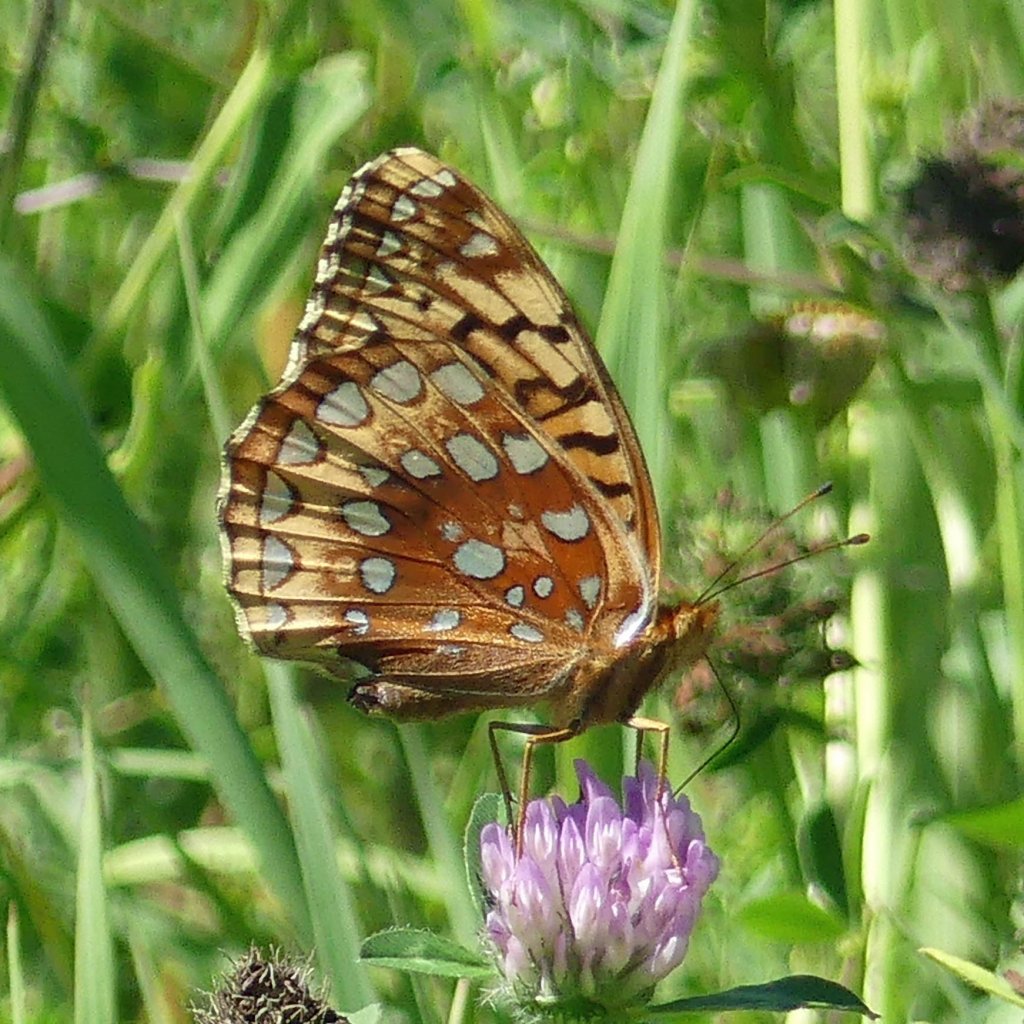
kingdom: Animalia
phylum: Arthropoda
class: Insecta
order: Lepidoptera
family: Nymphalidae
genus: Speyeria
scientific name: Speyeria cybele
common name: Great Spangled Fritillary
